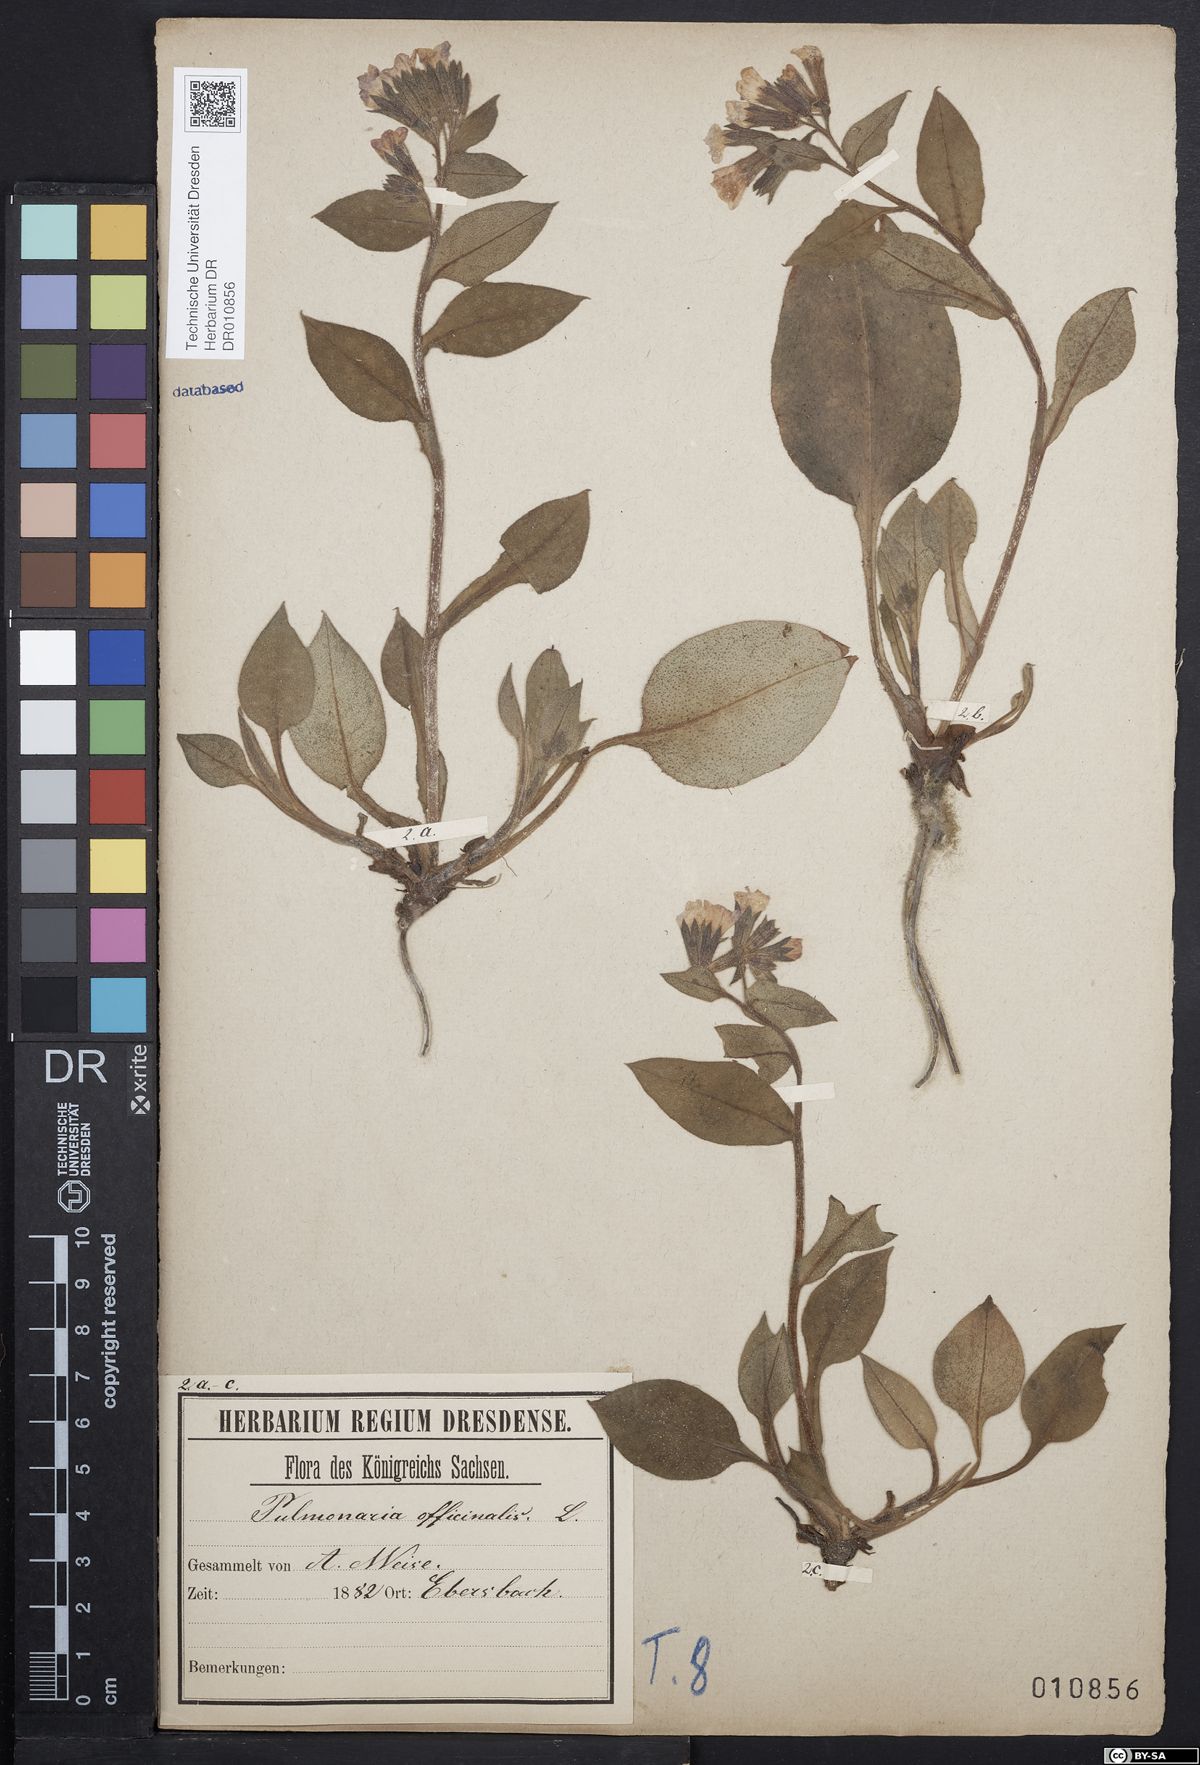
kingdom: Plantae
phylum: Tracheophyta
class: Magnoliopsida
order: Boraginales
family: Boraginaceae
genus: Pulmonaria
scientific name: Pulmonaria obscura
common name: Suffolk lungwort
